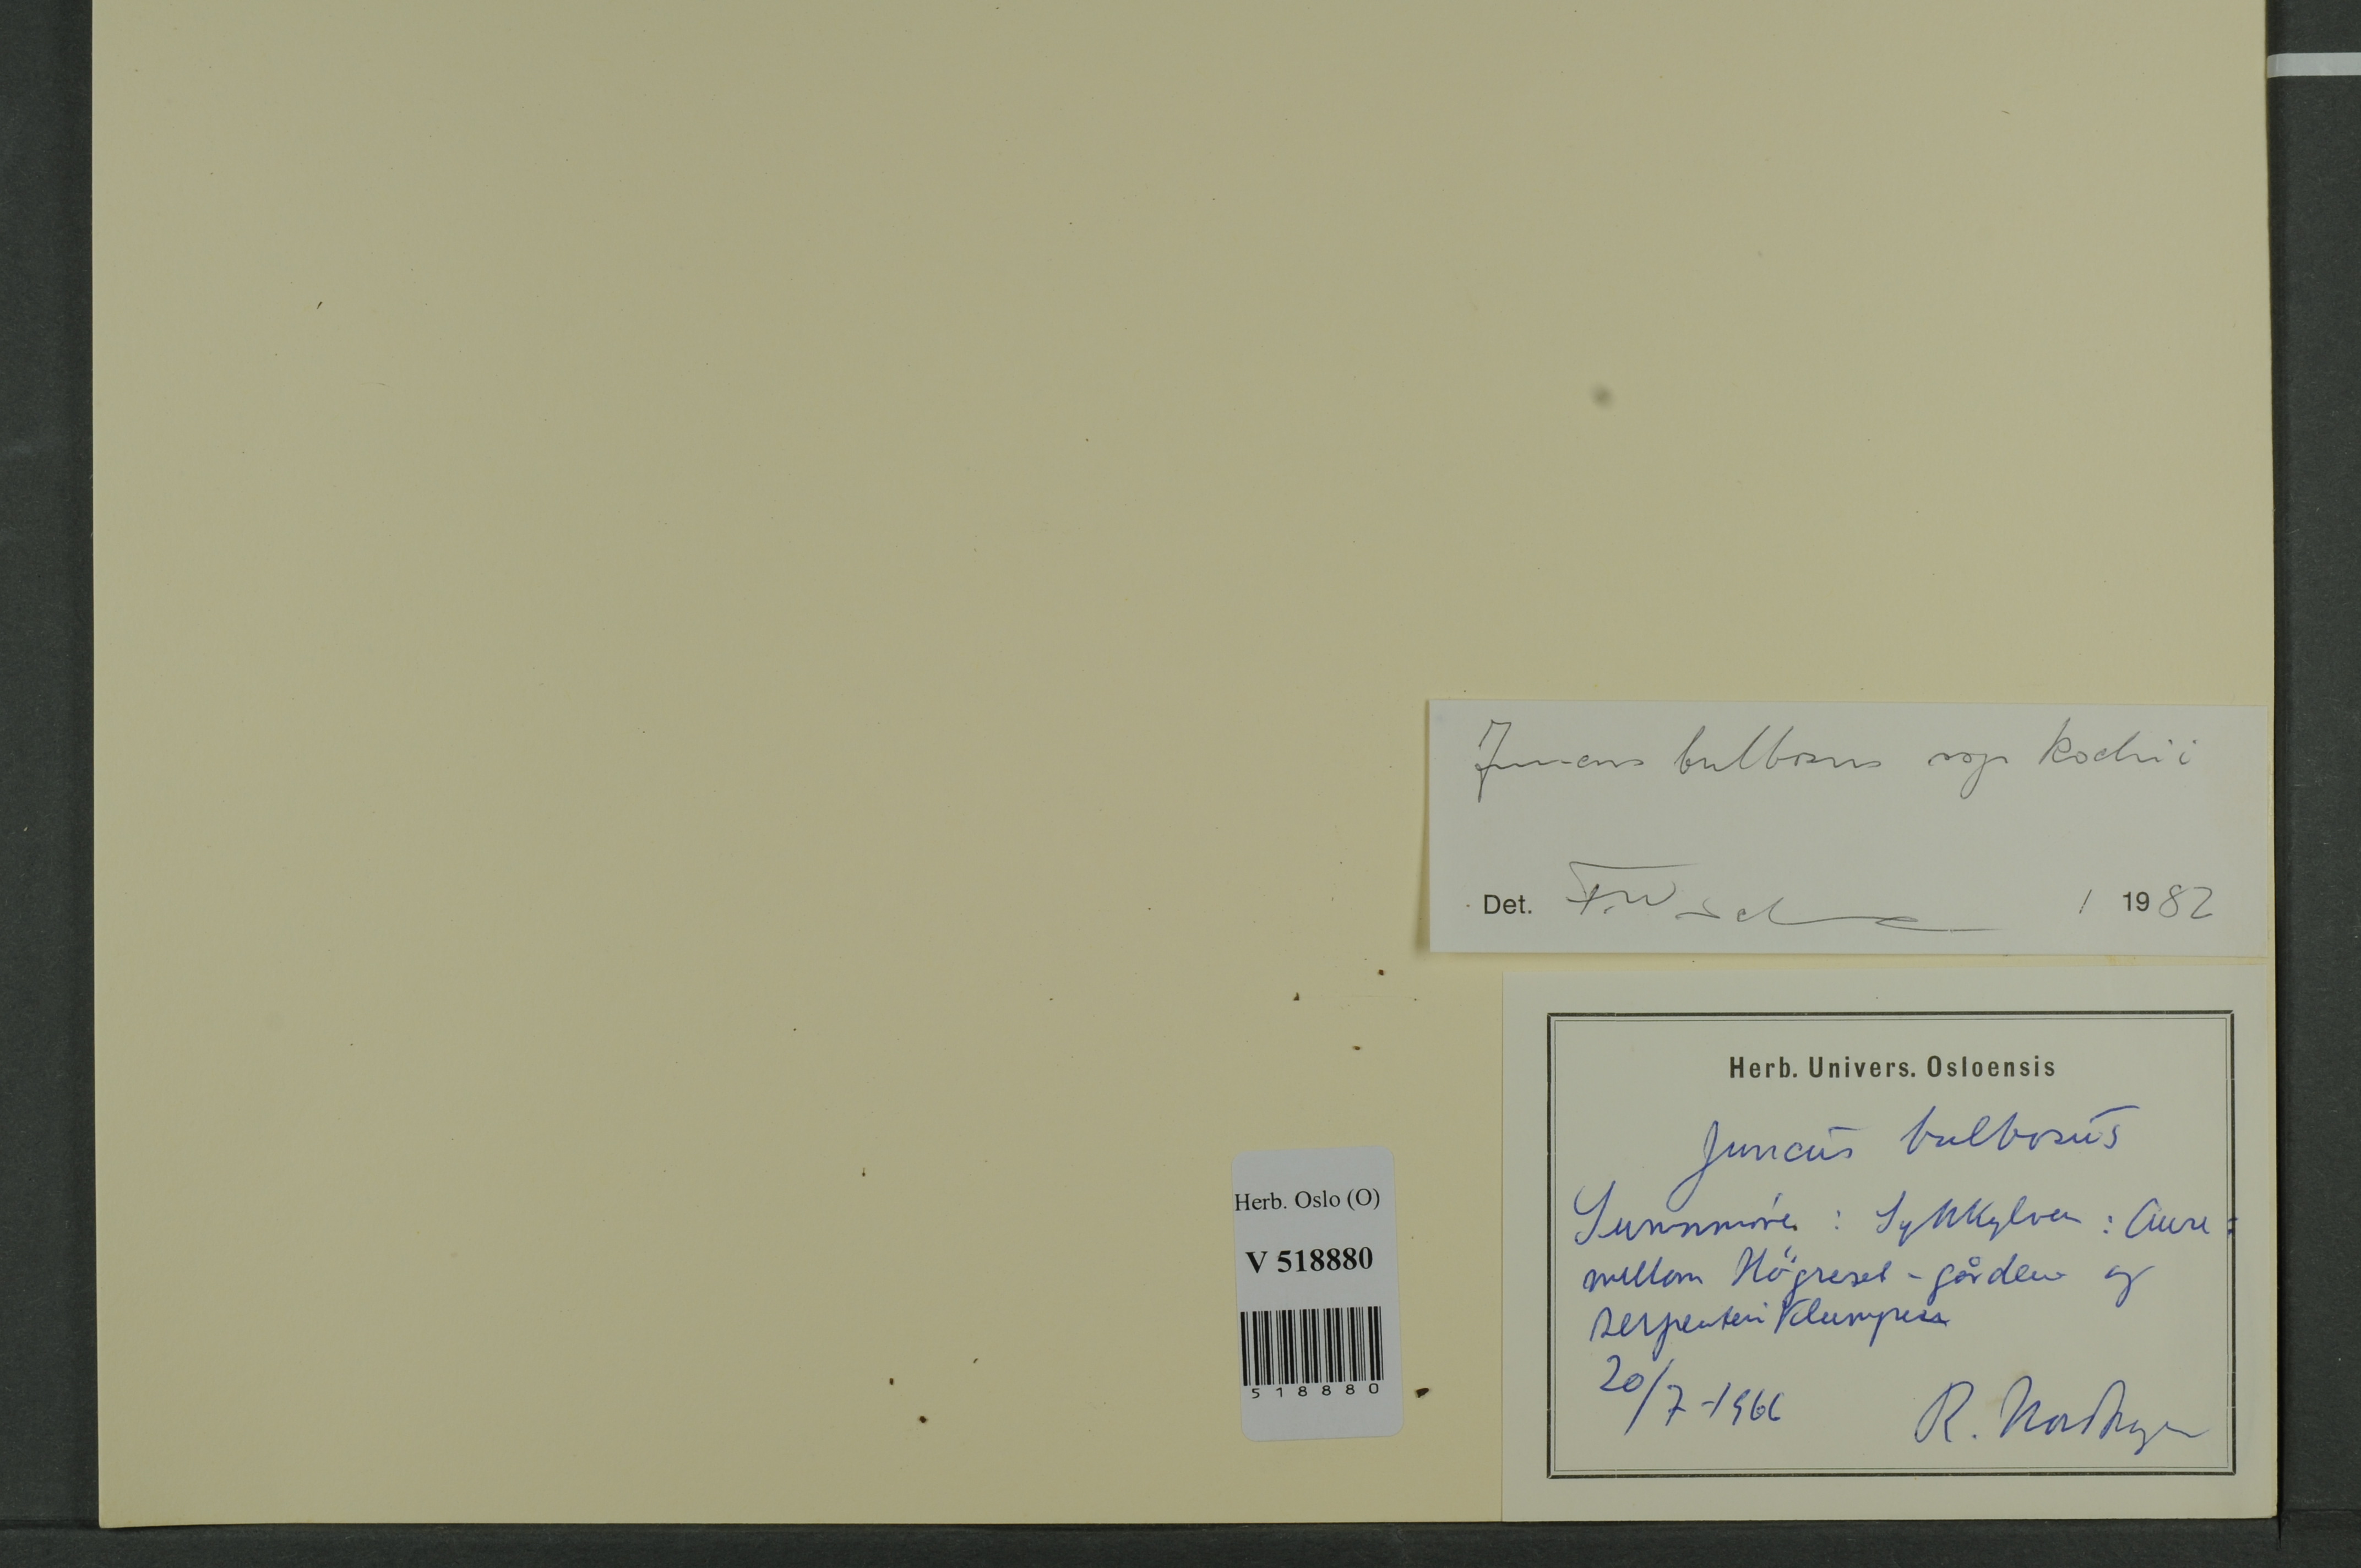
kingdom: Plantae
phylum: Tracheophyta
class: Liliopsida
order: Poales
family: Juncaceae
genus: Juncus
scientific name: Juncus bulbosus
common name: Bulbous rush
